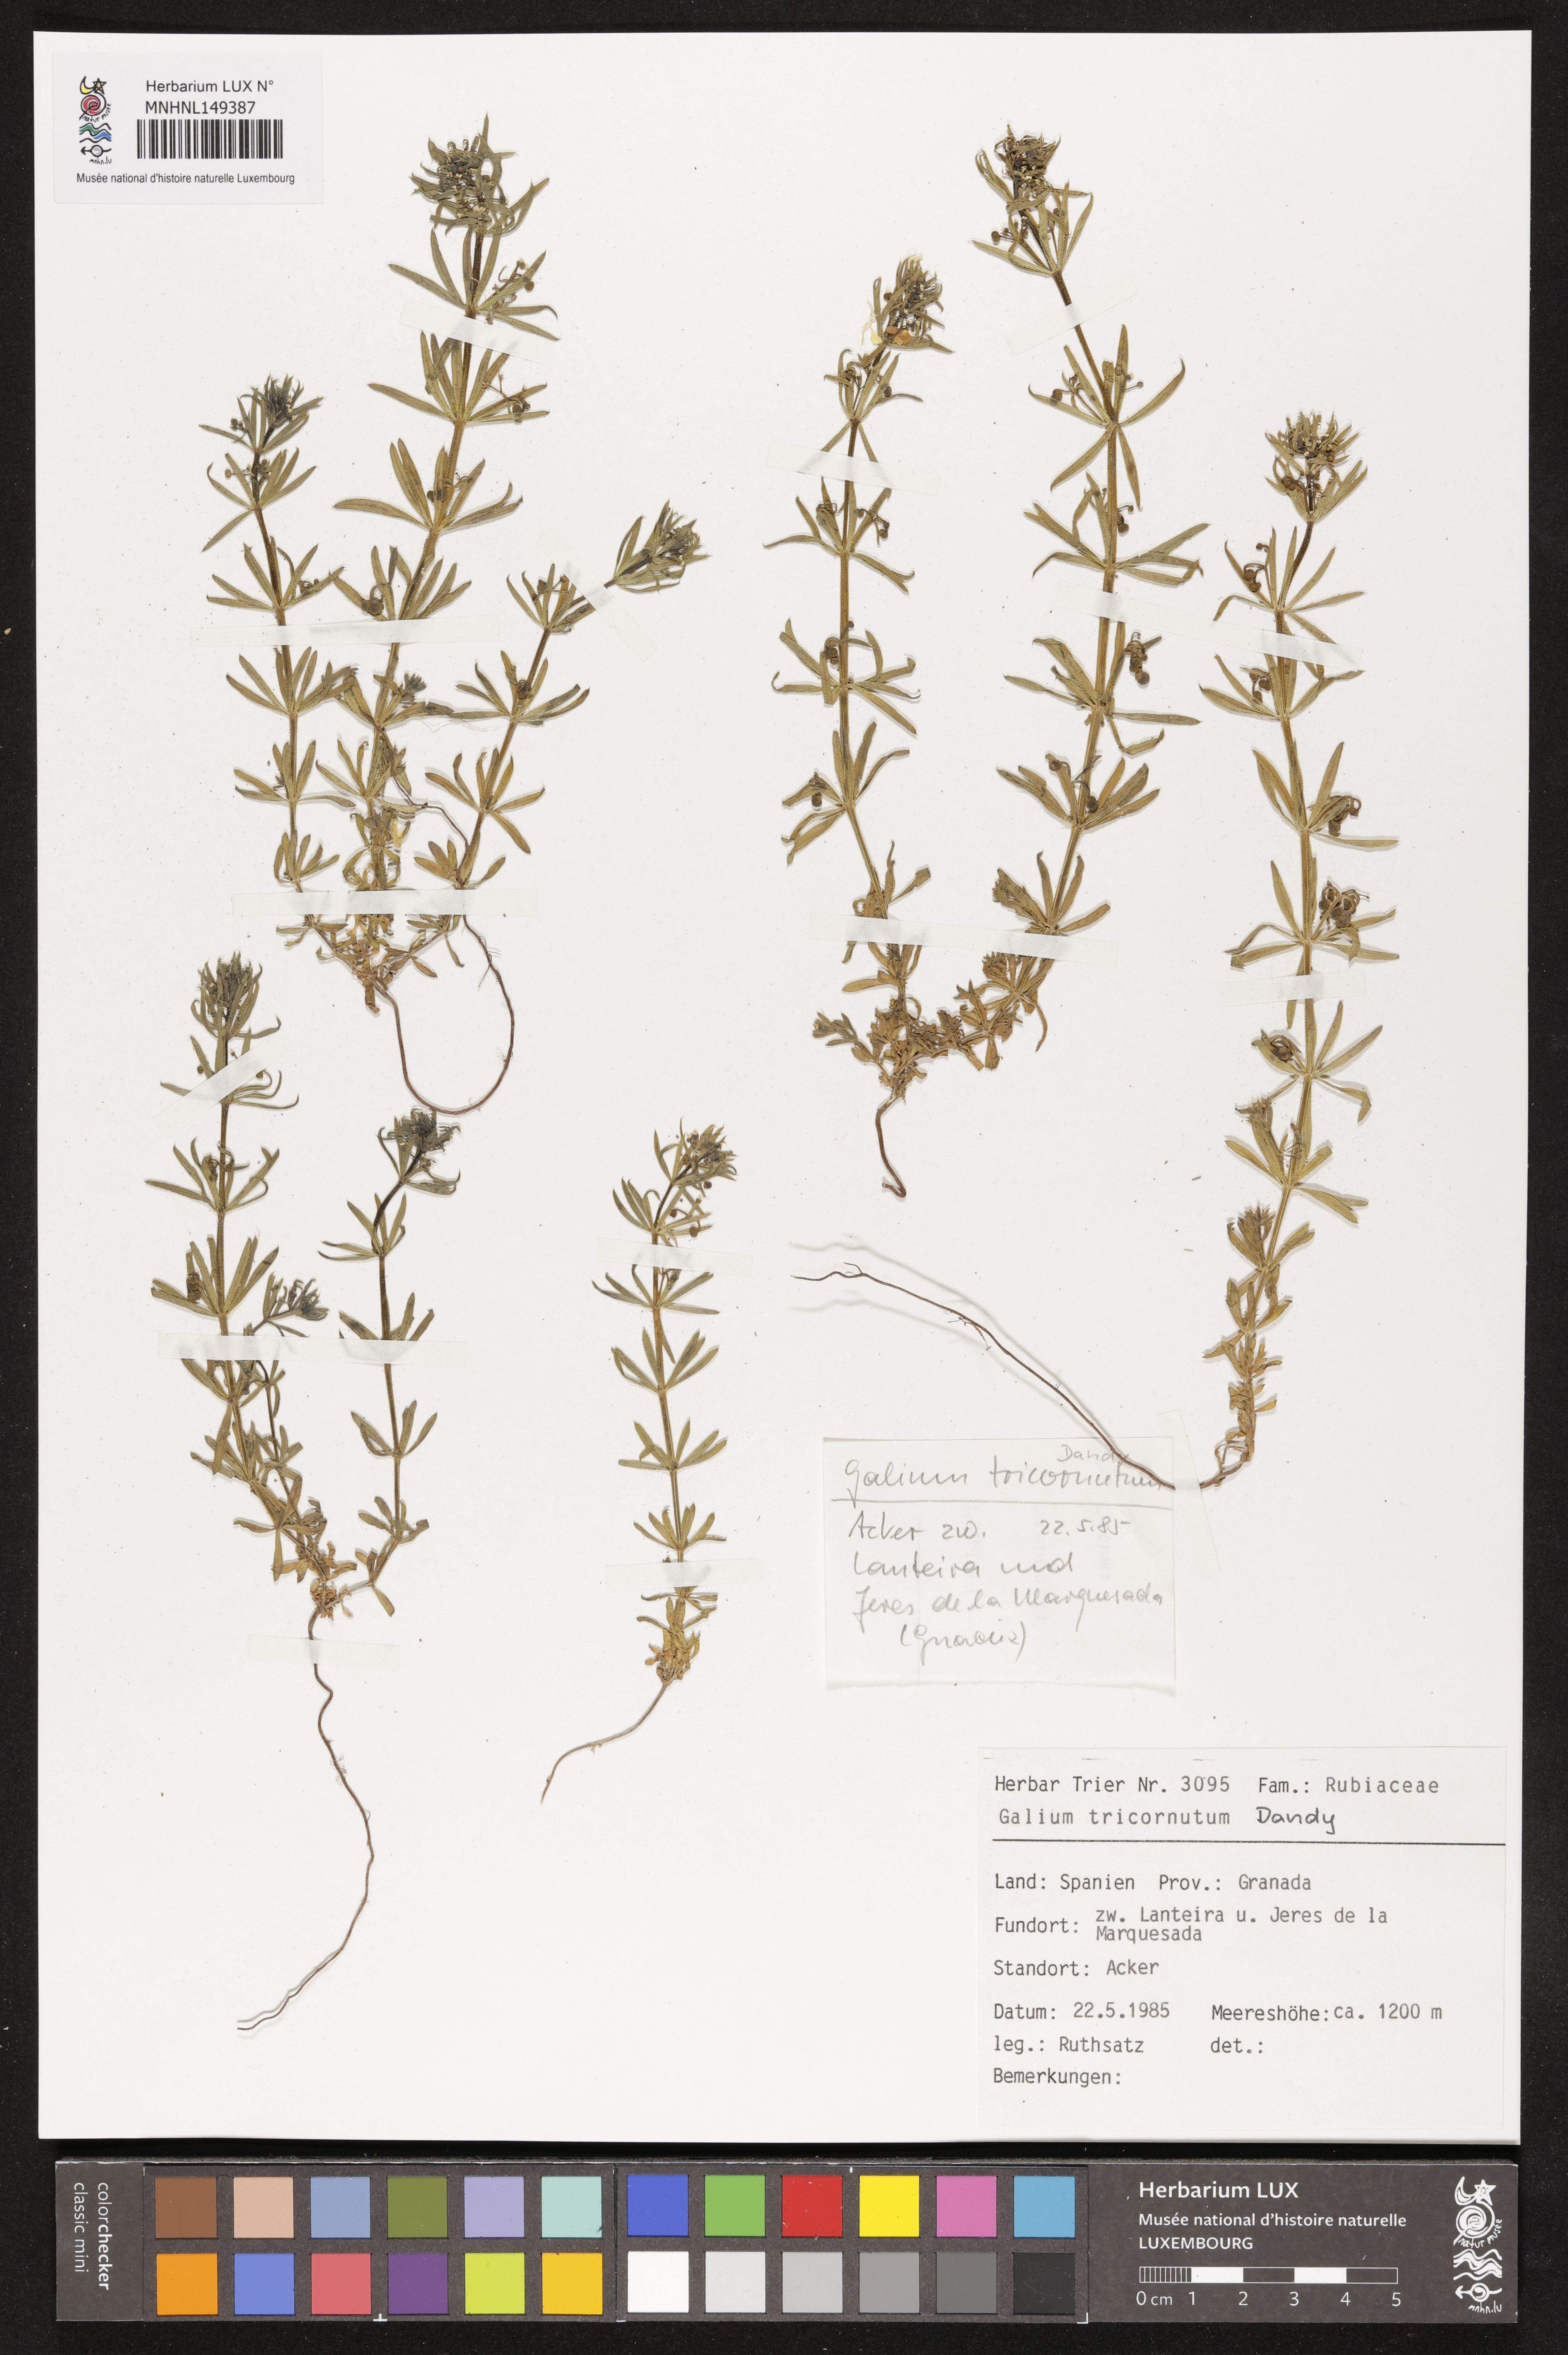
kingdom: Plantae
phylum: Tracheophyta
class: Magnoliopsida
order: Gentianales
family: Rubiaceae
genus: Galium
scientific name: Galium tricornutum
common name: Corn cleavers
